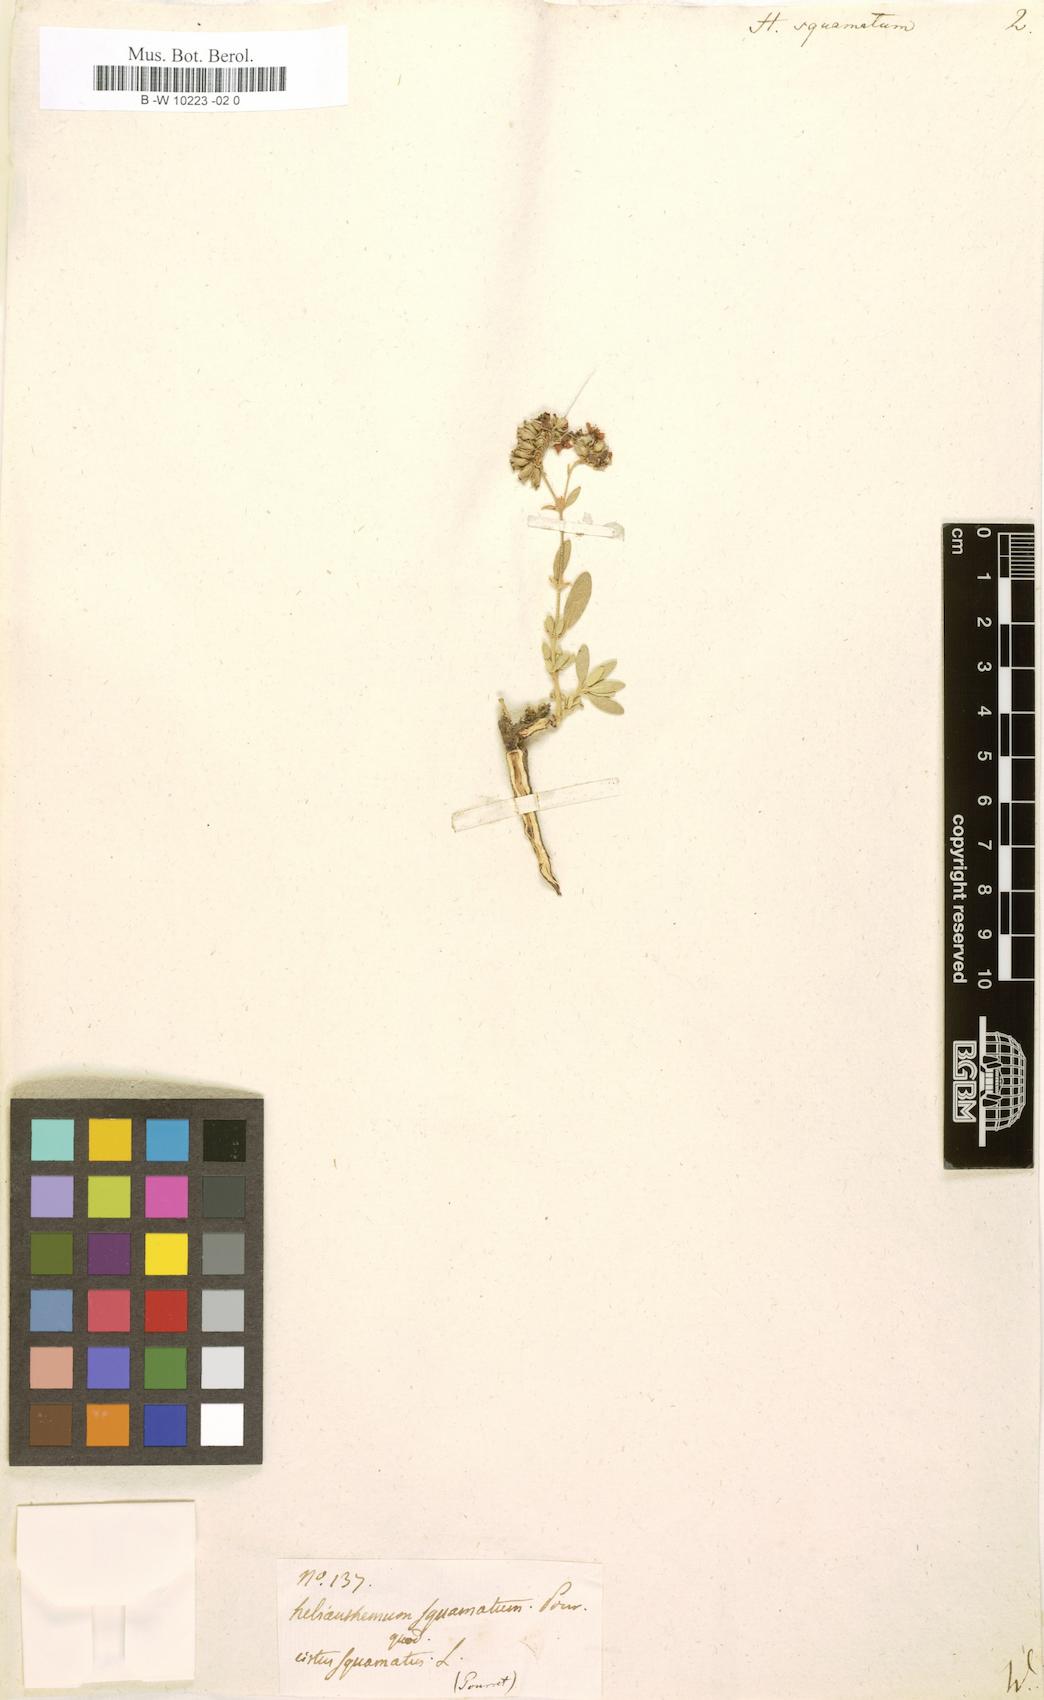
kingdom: Plantae
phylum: Tracheophyta
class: Magnoliopsida
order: Malvales
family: Cistaceae
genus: Helianthemum
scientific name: Helianthemum squamatum
